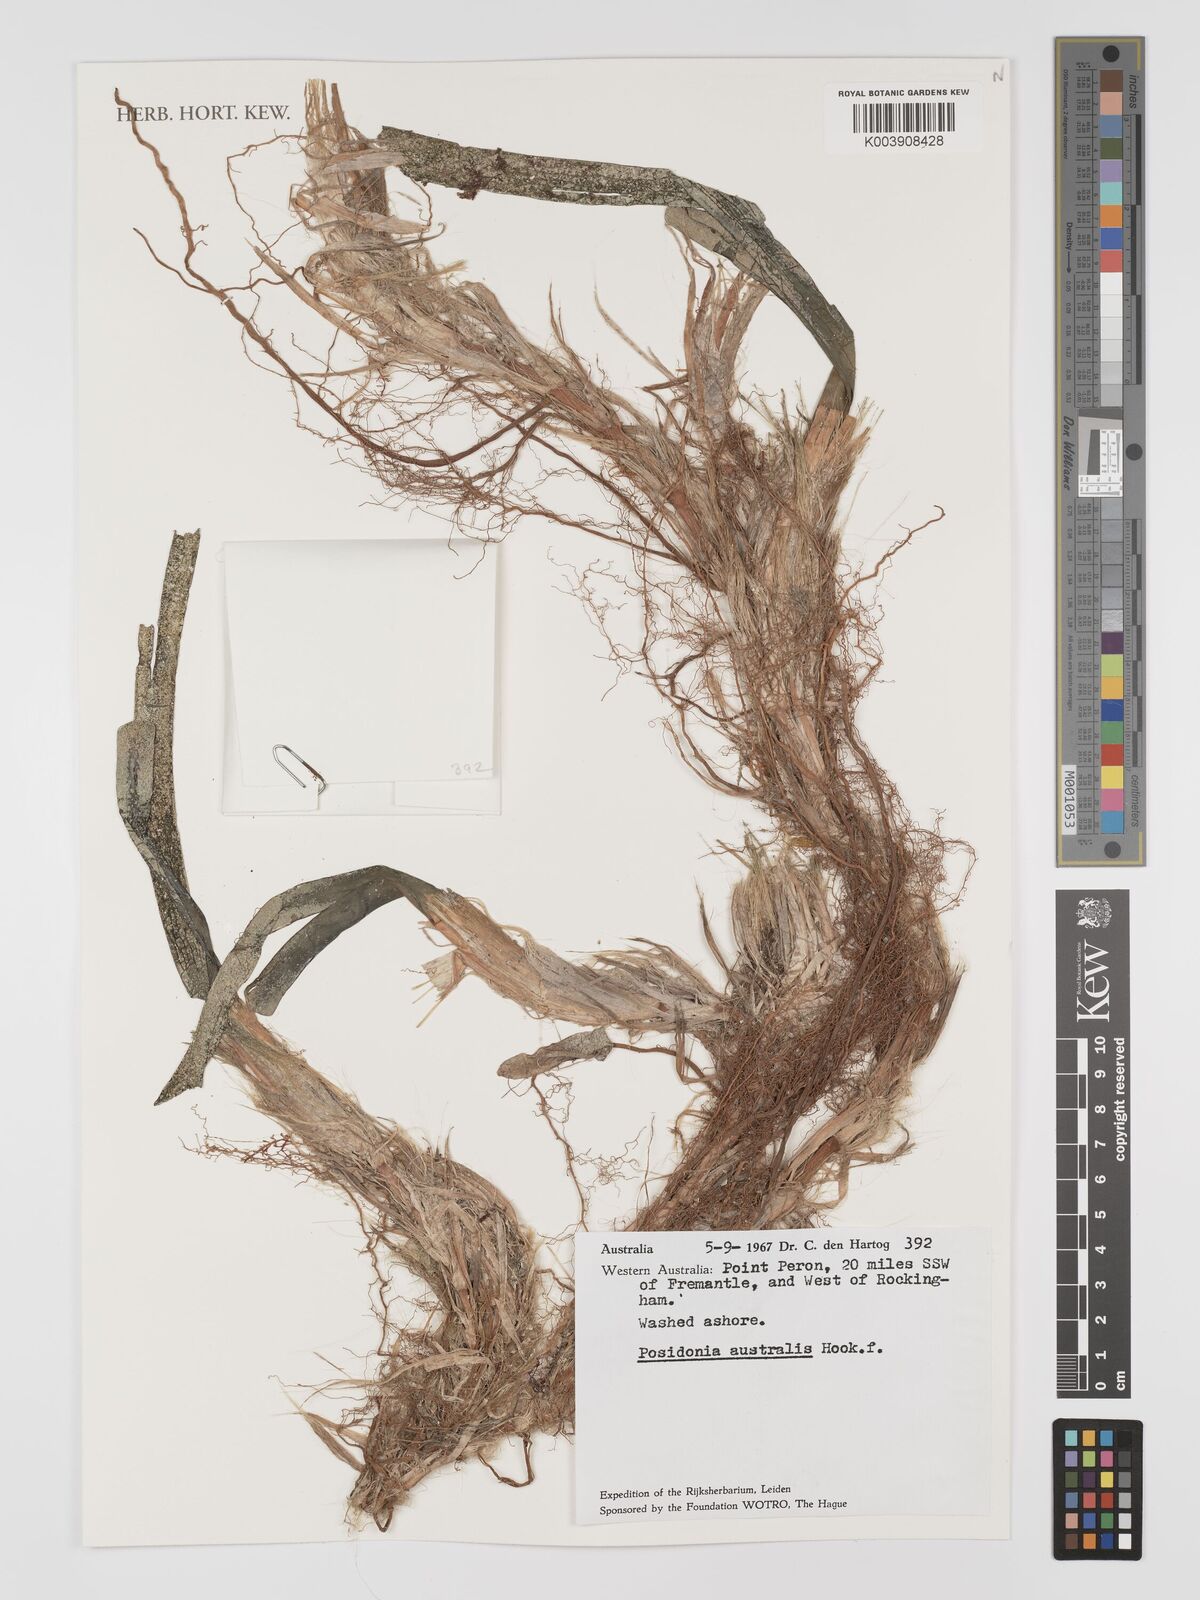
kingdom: Plantae
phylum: Tracheophyta
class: Liliopsida
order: Alismatales
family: Posidoniaceae
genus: Posidonia
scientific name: Posidonia australis
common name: Species code: pa
